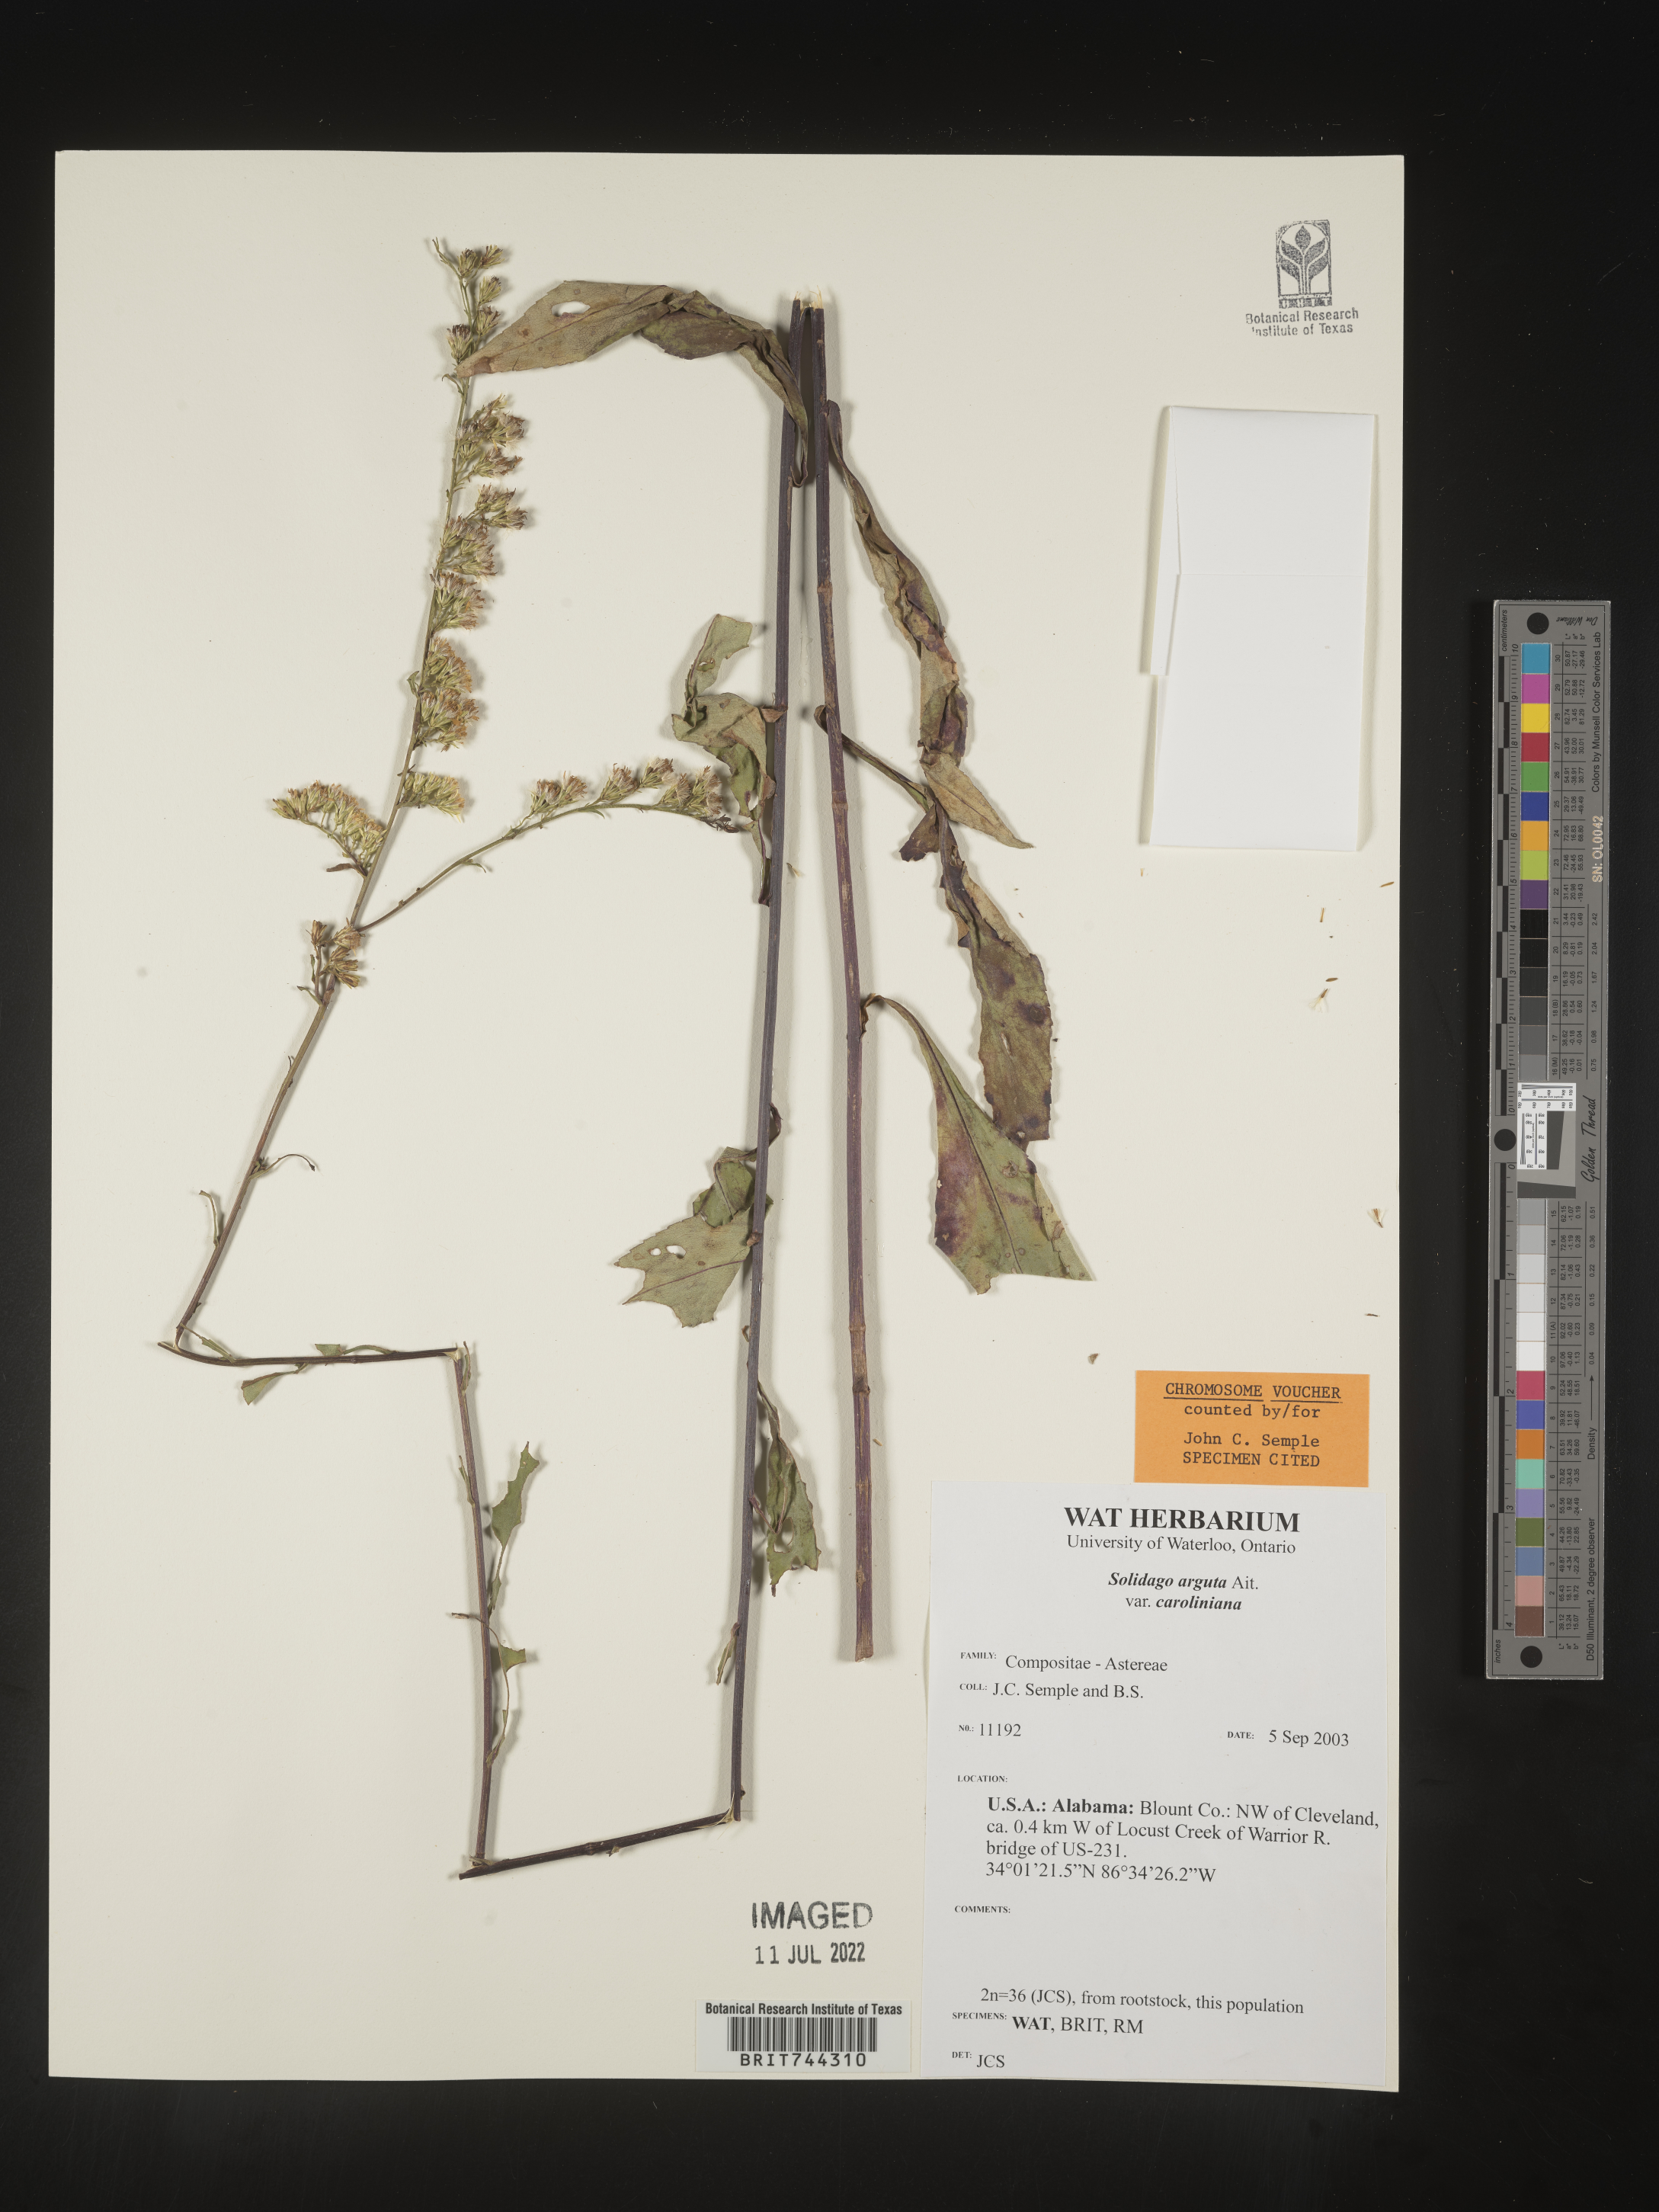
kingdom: Plantae
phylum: Tracheophyta
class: Magnoliopsida
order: Asterales
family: Asteraceae
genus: Solidago
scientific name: Solidago arguta
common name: Atlantic goldenrod
